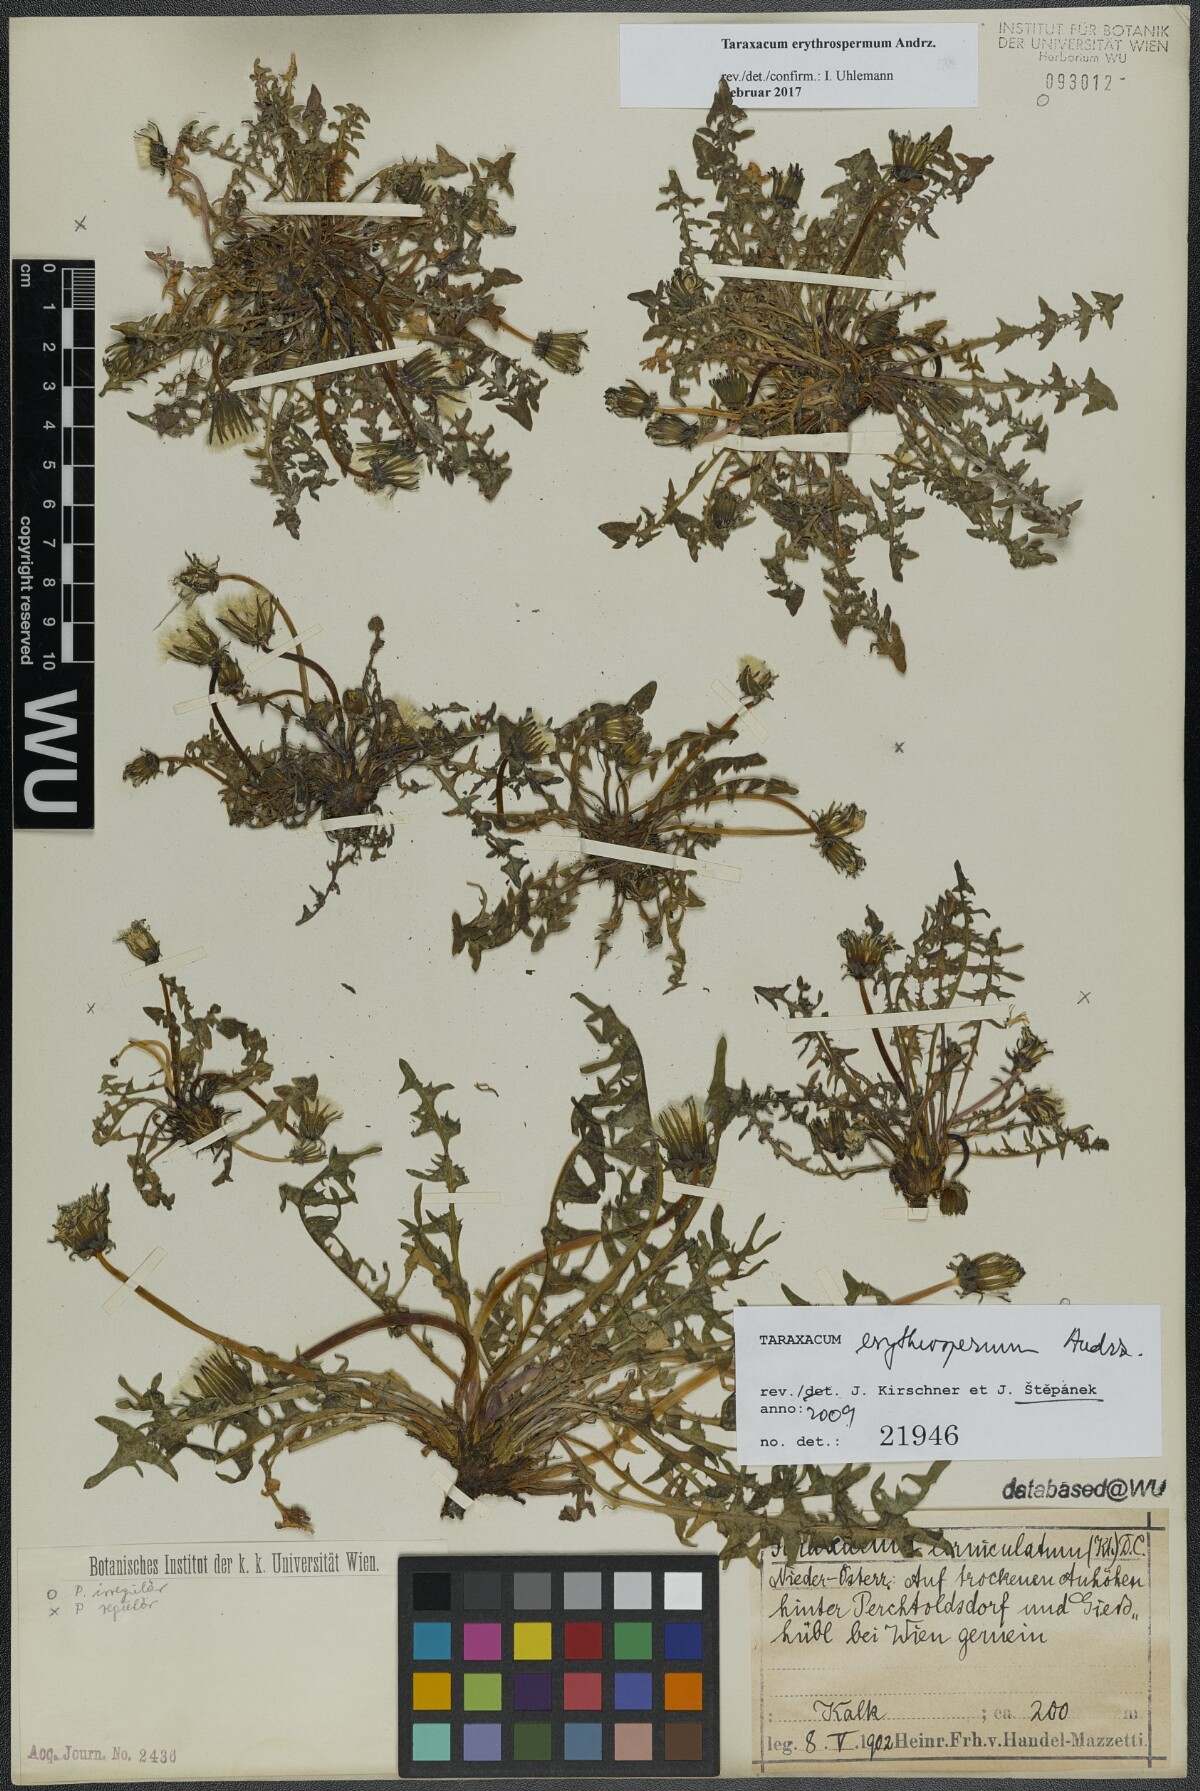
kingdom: Plantae
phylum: Tracheophyta
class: Magnoliopsida
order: Asterales
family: Asteraceae
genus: Taraxacum
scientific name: Taraxacum erythrospermum
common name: Rock dandelion
